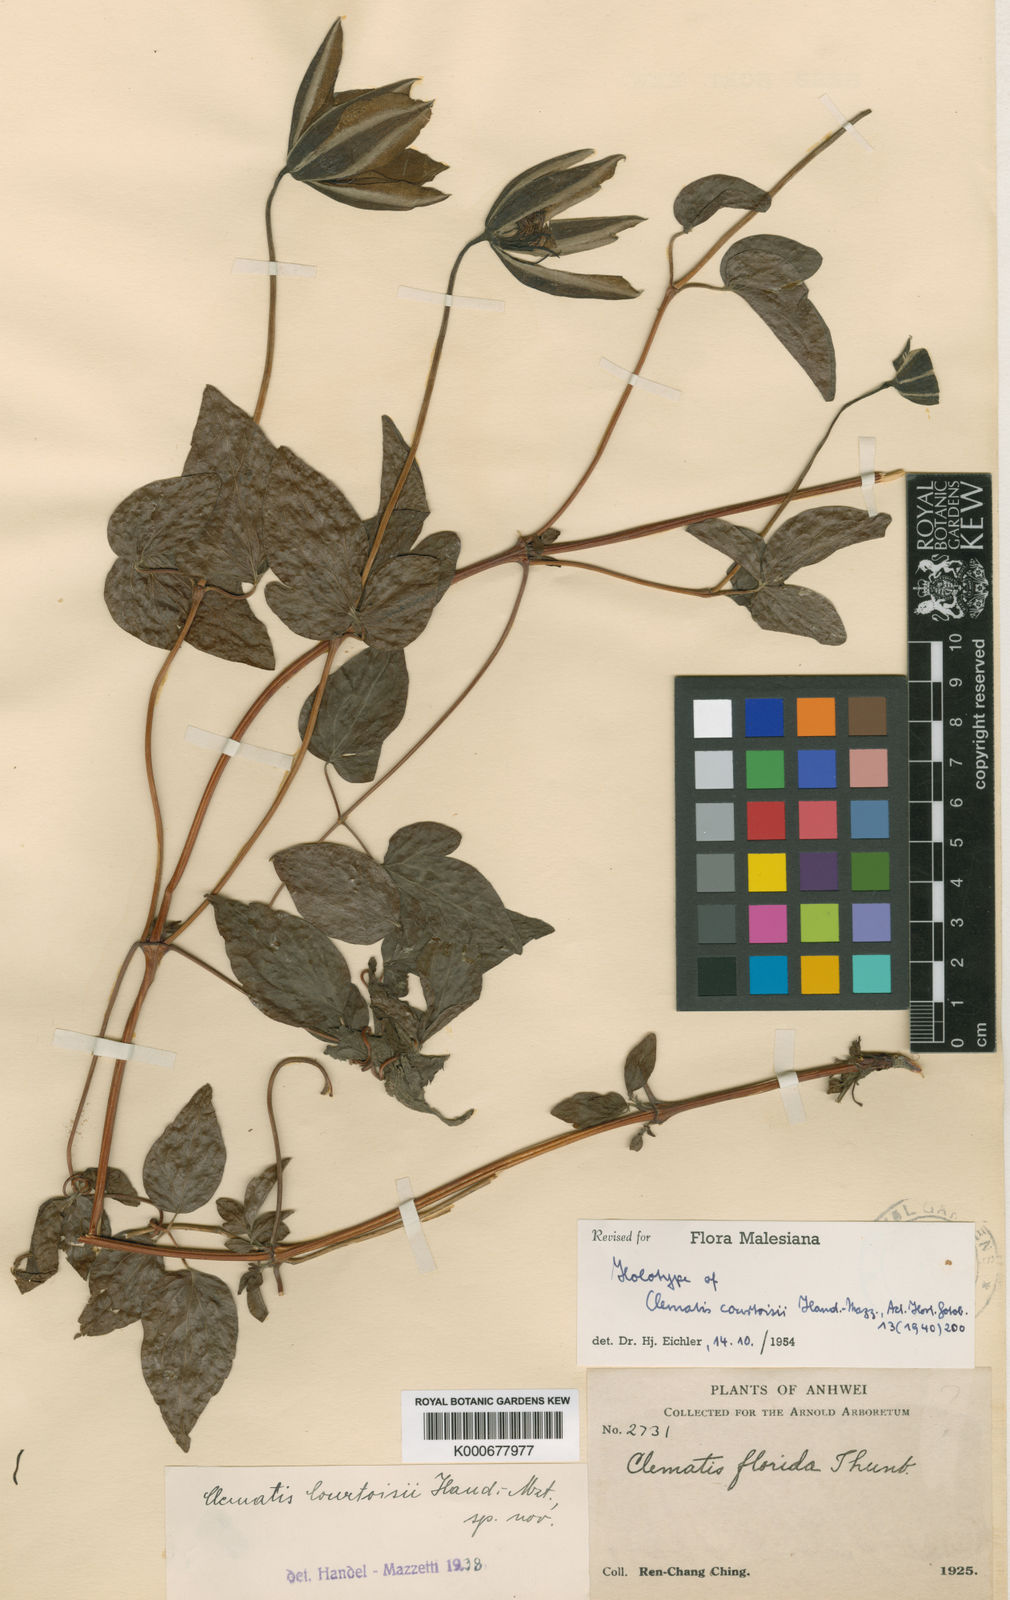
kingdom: Plantae
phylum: Tracheophyta
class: Magnoliopsida
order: Ranunculales
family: Ranunculaceae
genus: Clematis
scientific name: Clematis courtoisii
